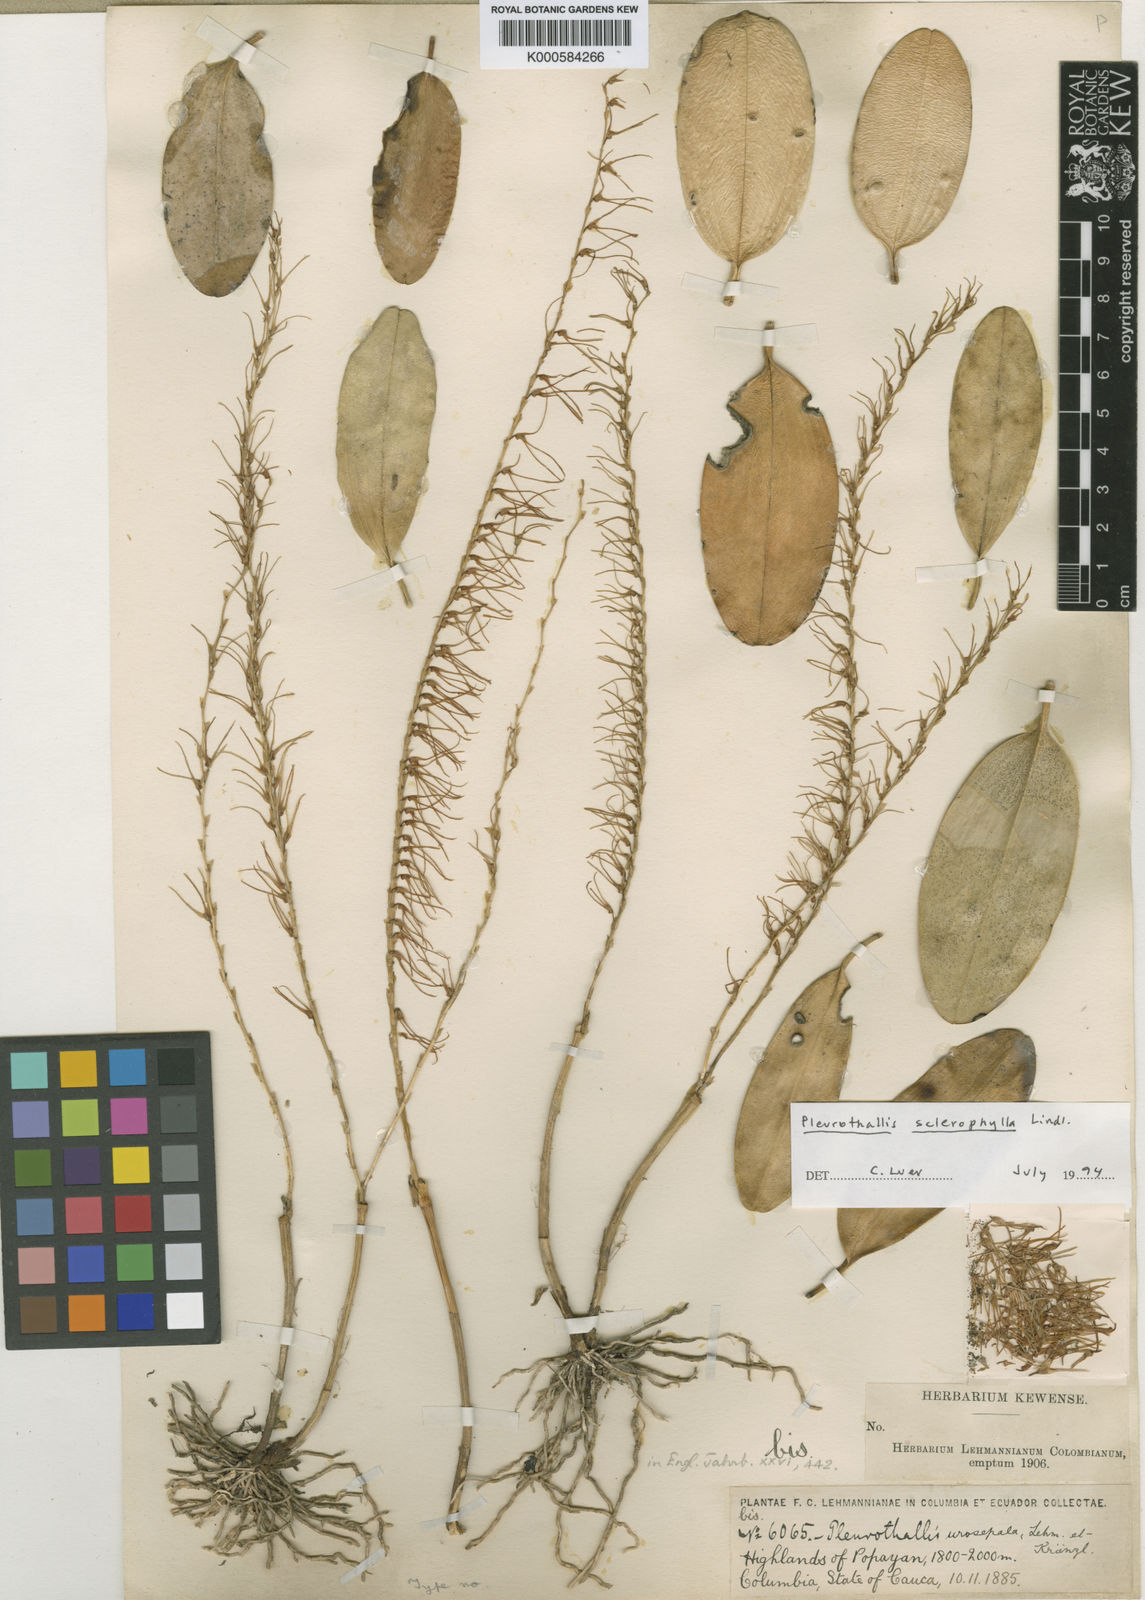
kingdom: Plantae
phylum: Tracheophyta
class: Liliopsida
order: Asparagales
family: Orchidaceae
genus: Stelis
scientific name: Stelis sclerophylla
